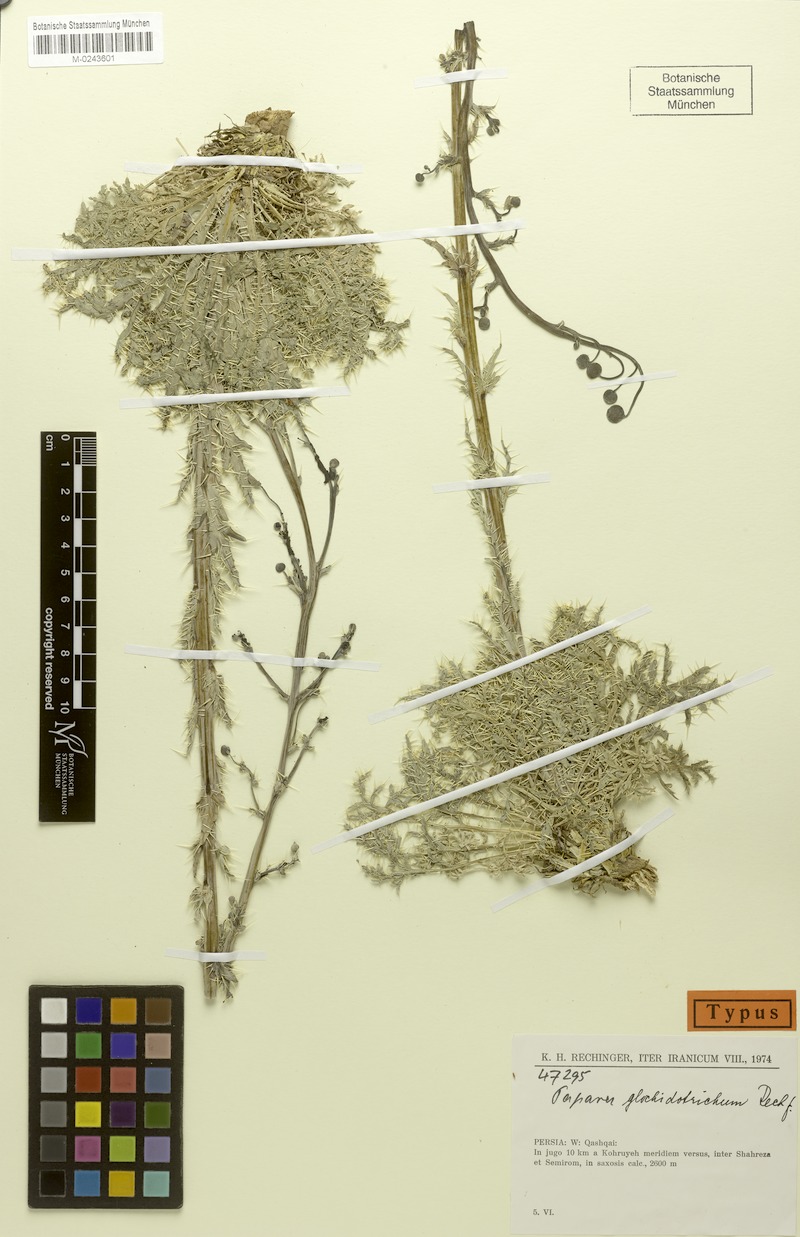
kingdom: Plantae
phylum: Tracheophyta
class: Magnoliopsida
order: Ranunculales
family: Papaveraceae
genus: Papaver
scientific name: Papaver
